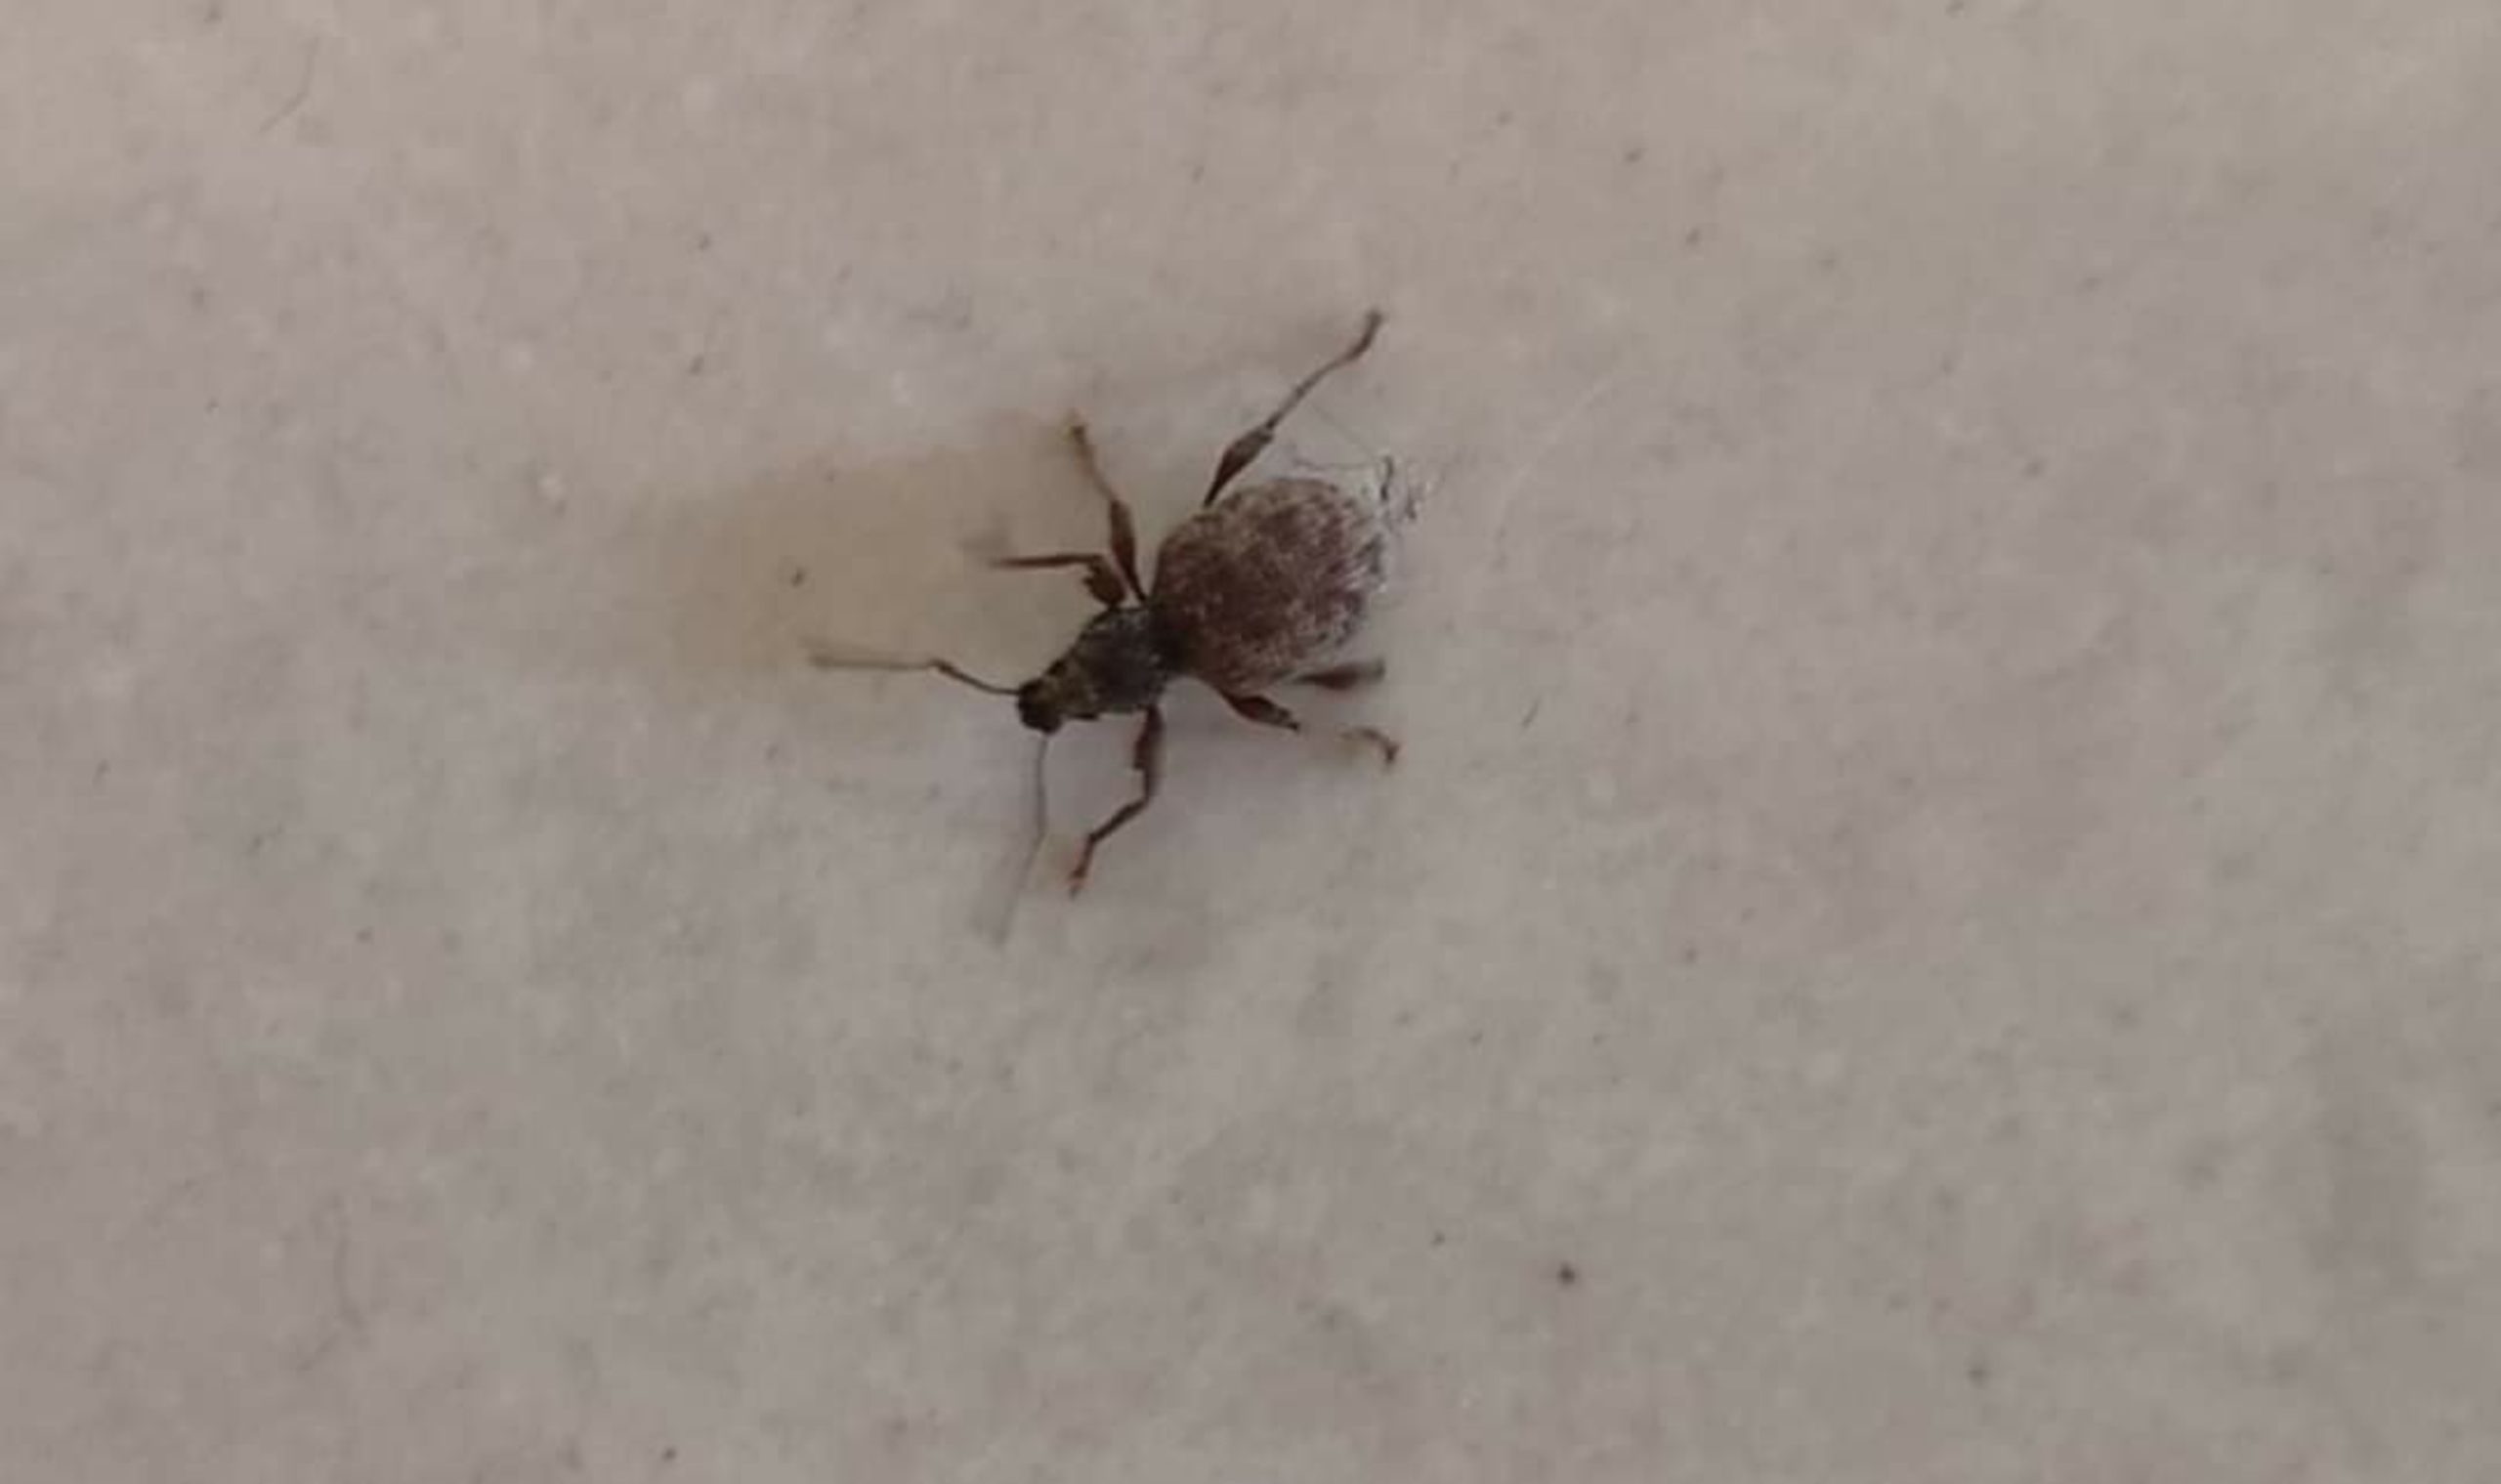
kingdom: Animalia
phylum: Arthropoda
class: Insecta
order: Coleoptera
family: Curculionidae
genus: Otiorhynchus
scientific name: Otiorhynchus crataegi
